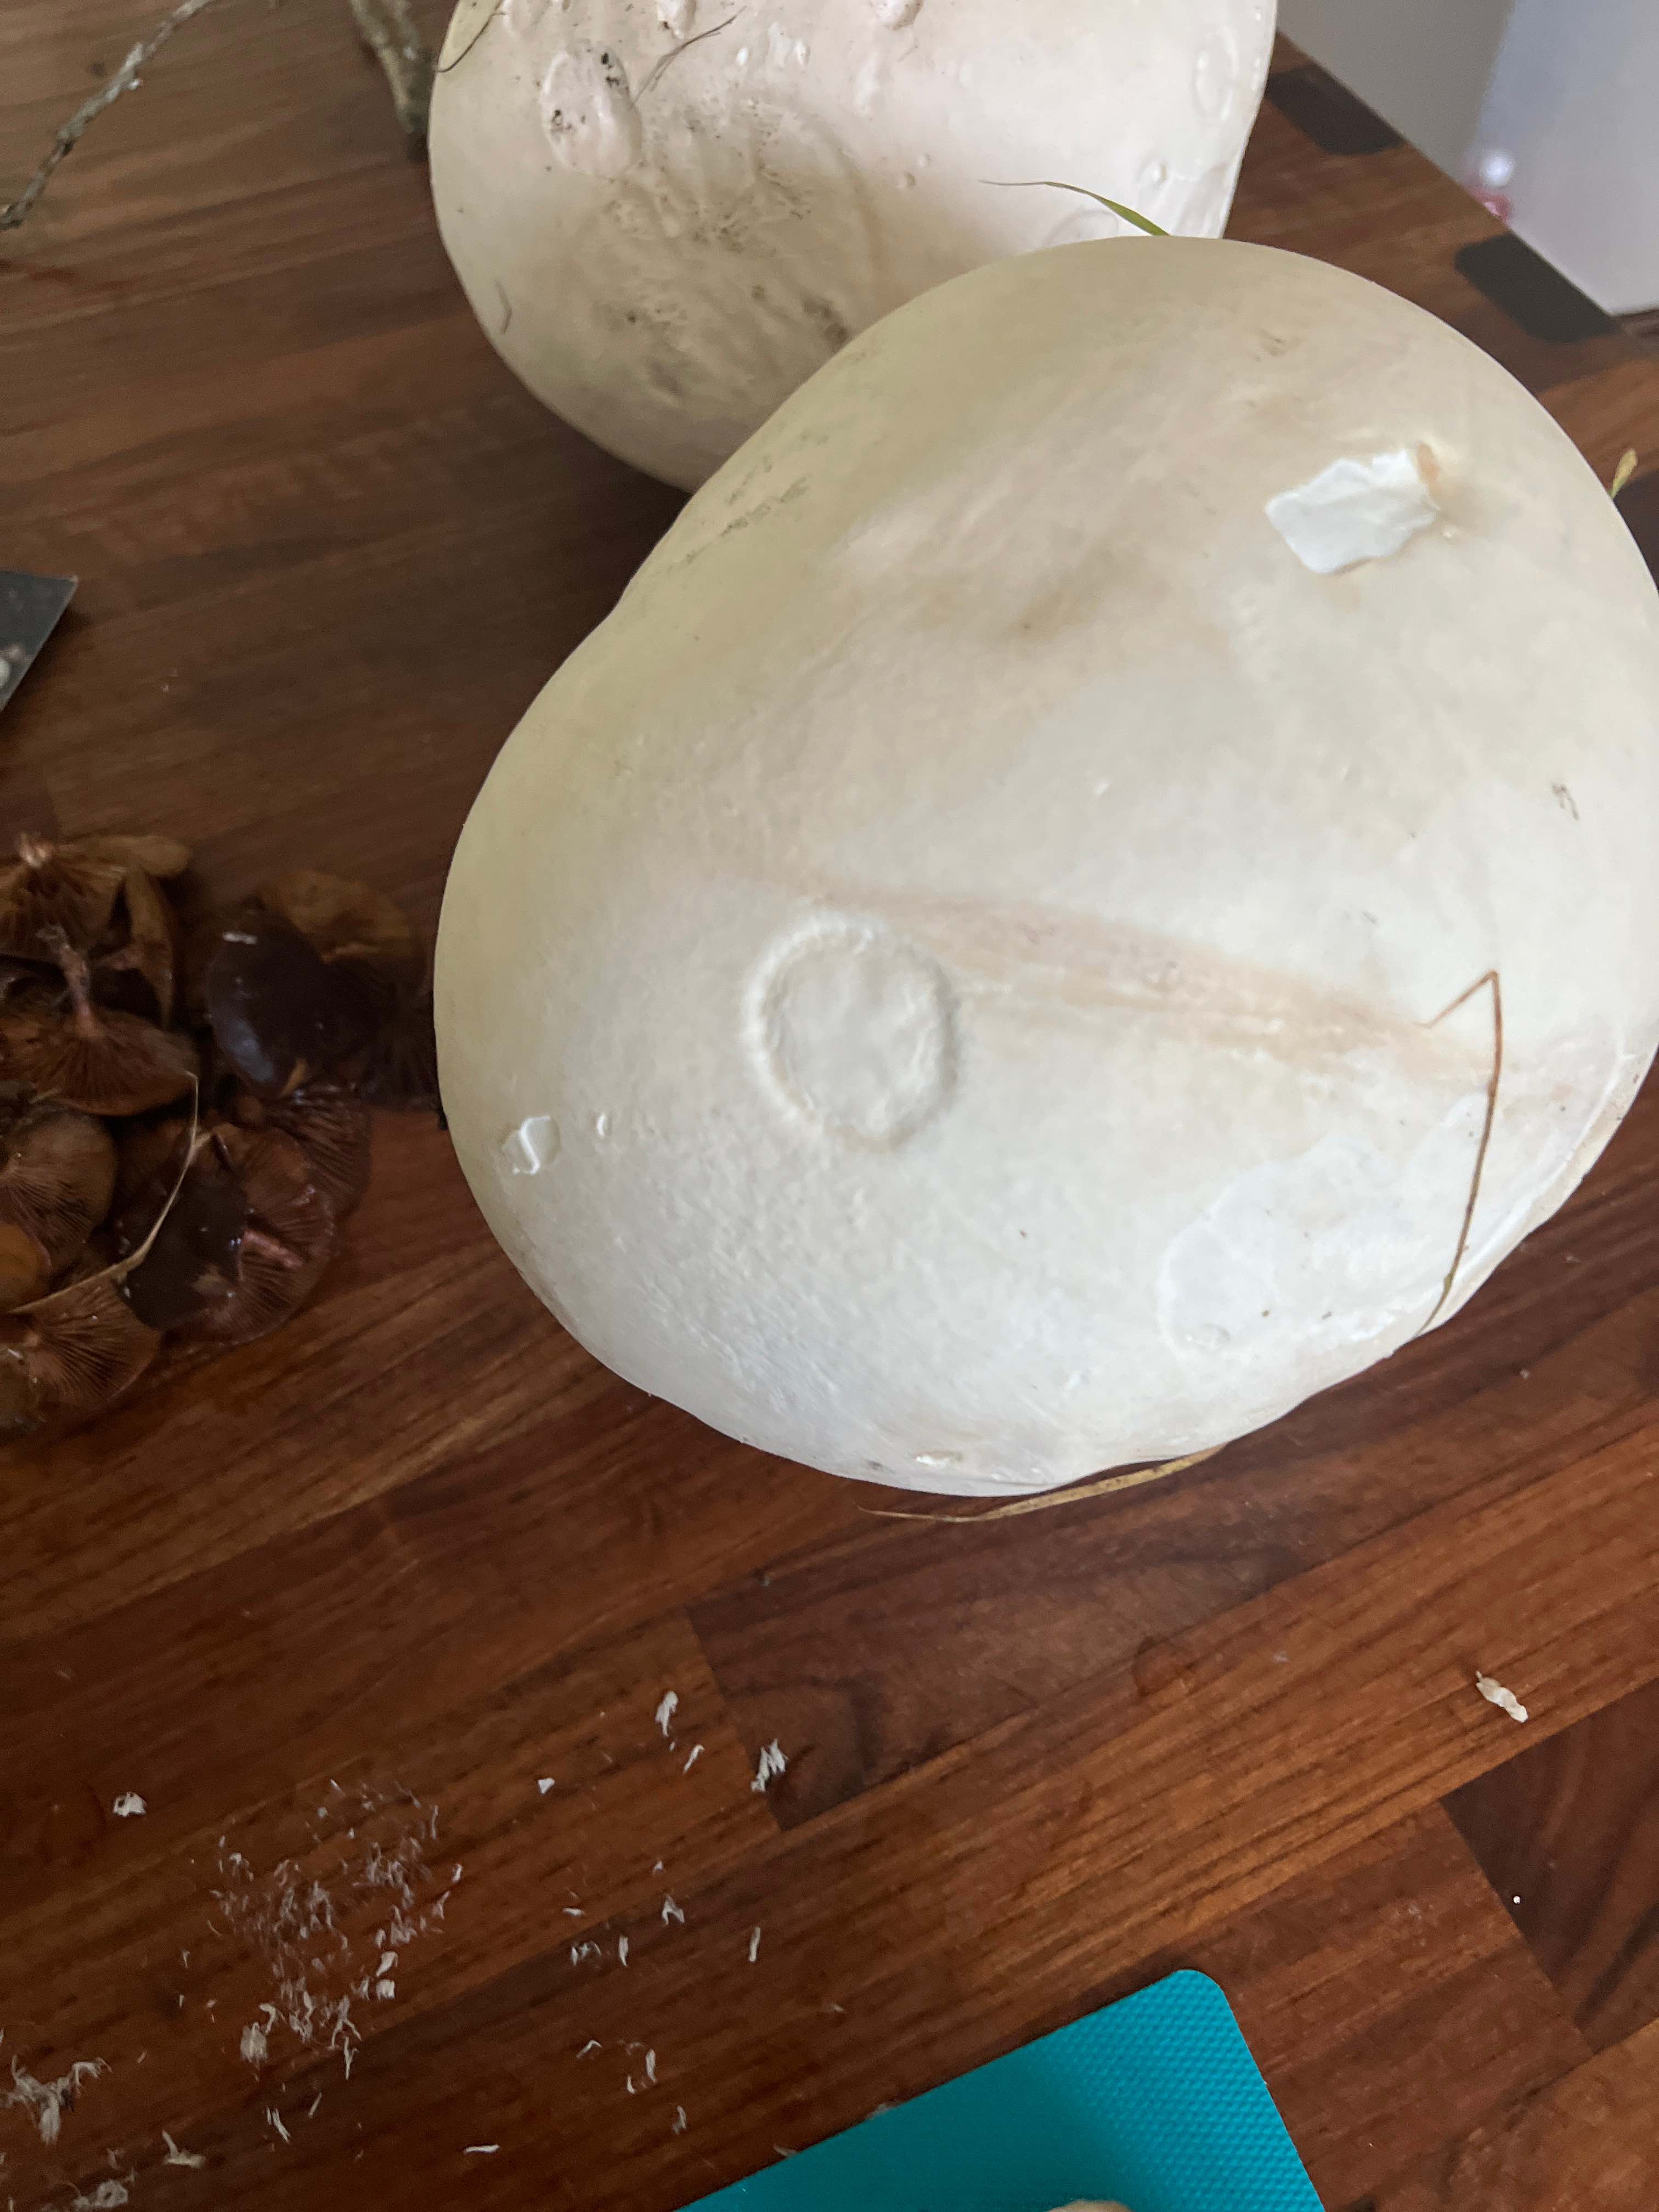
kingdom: Fungi
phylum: Basidiomycota
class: Agaricomycetes
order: Agaricales
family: Lycoperdaceae
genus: Calvatia
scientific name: Calvatia gigantea
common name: kæmpestøvbold
